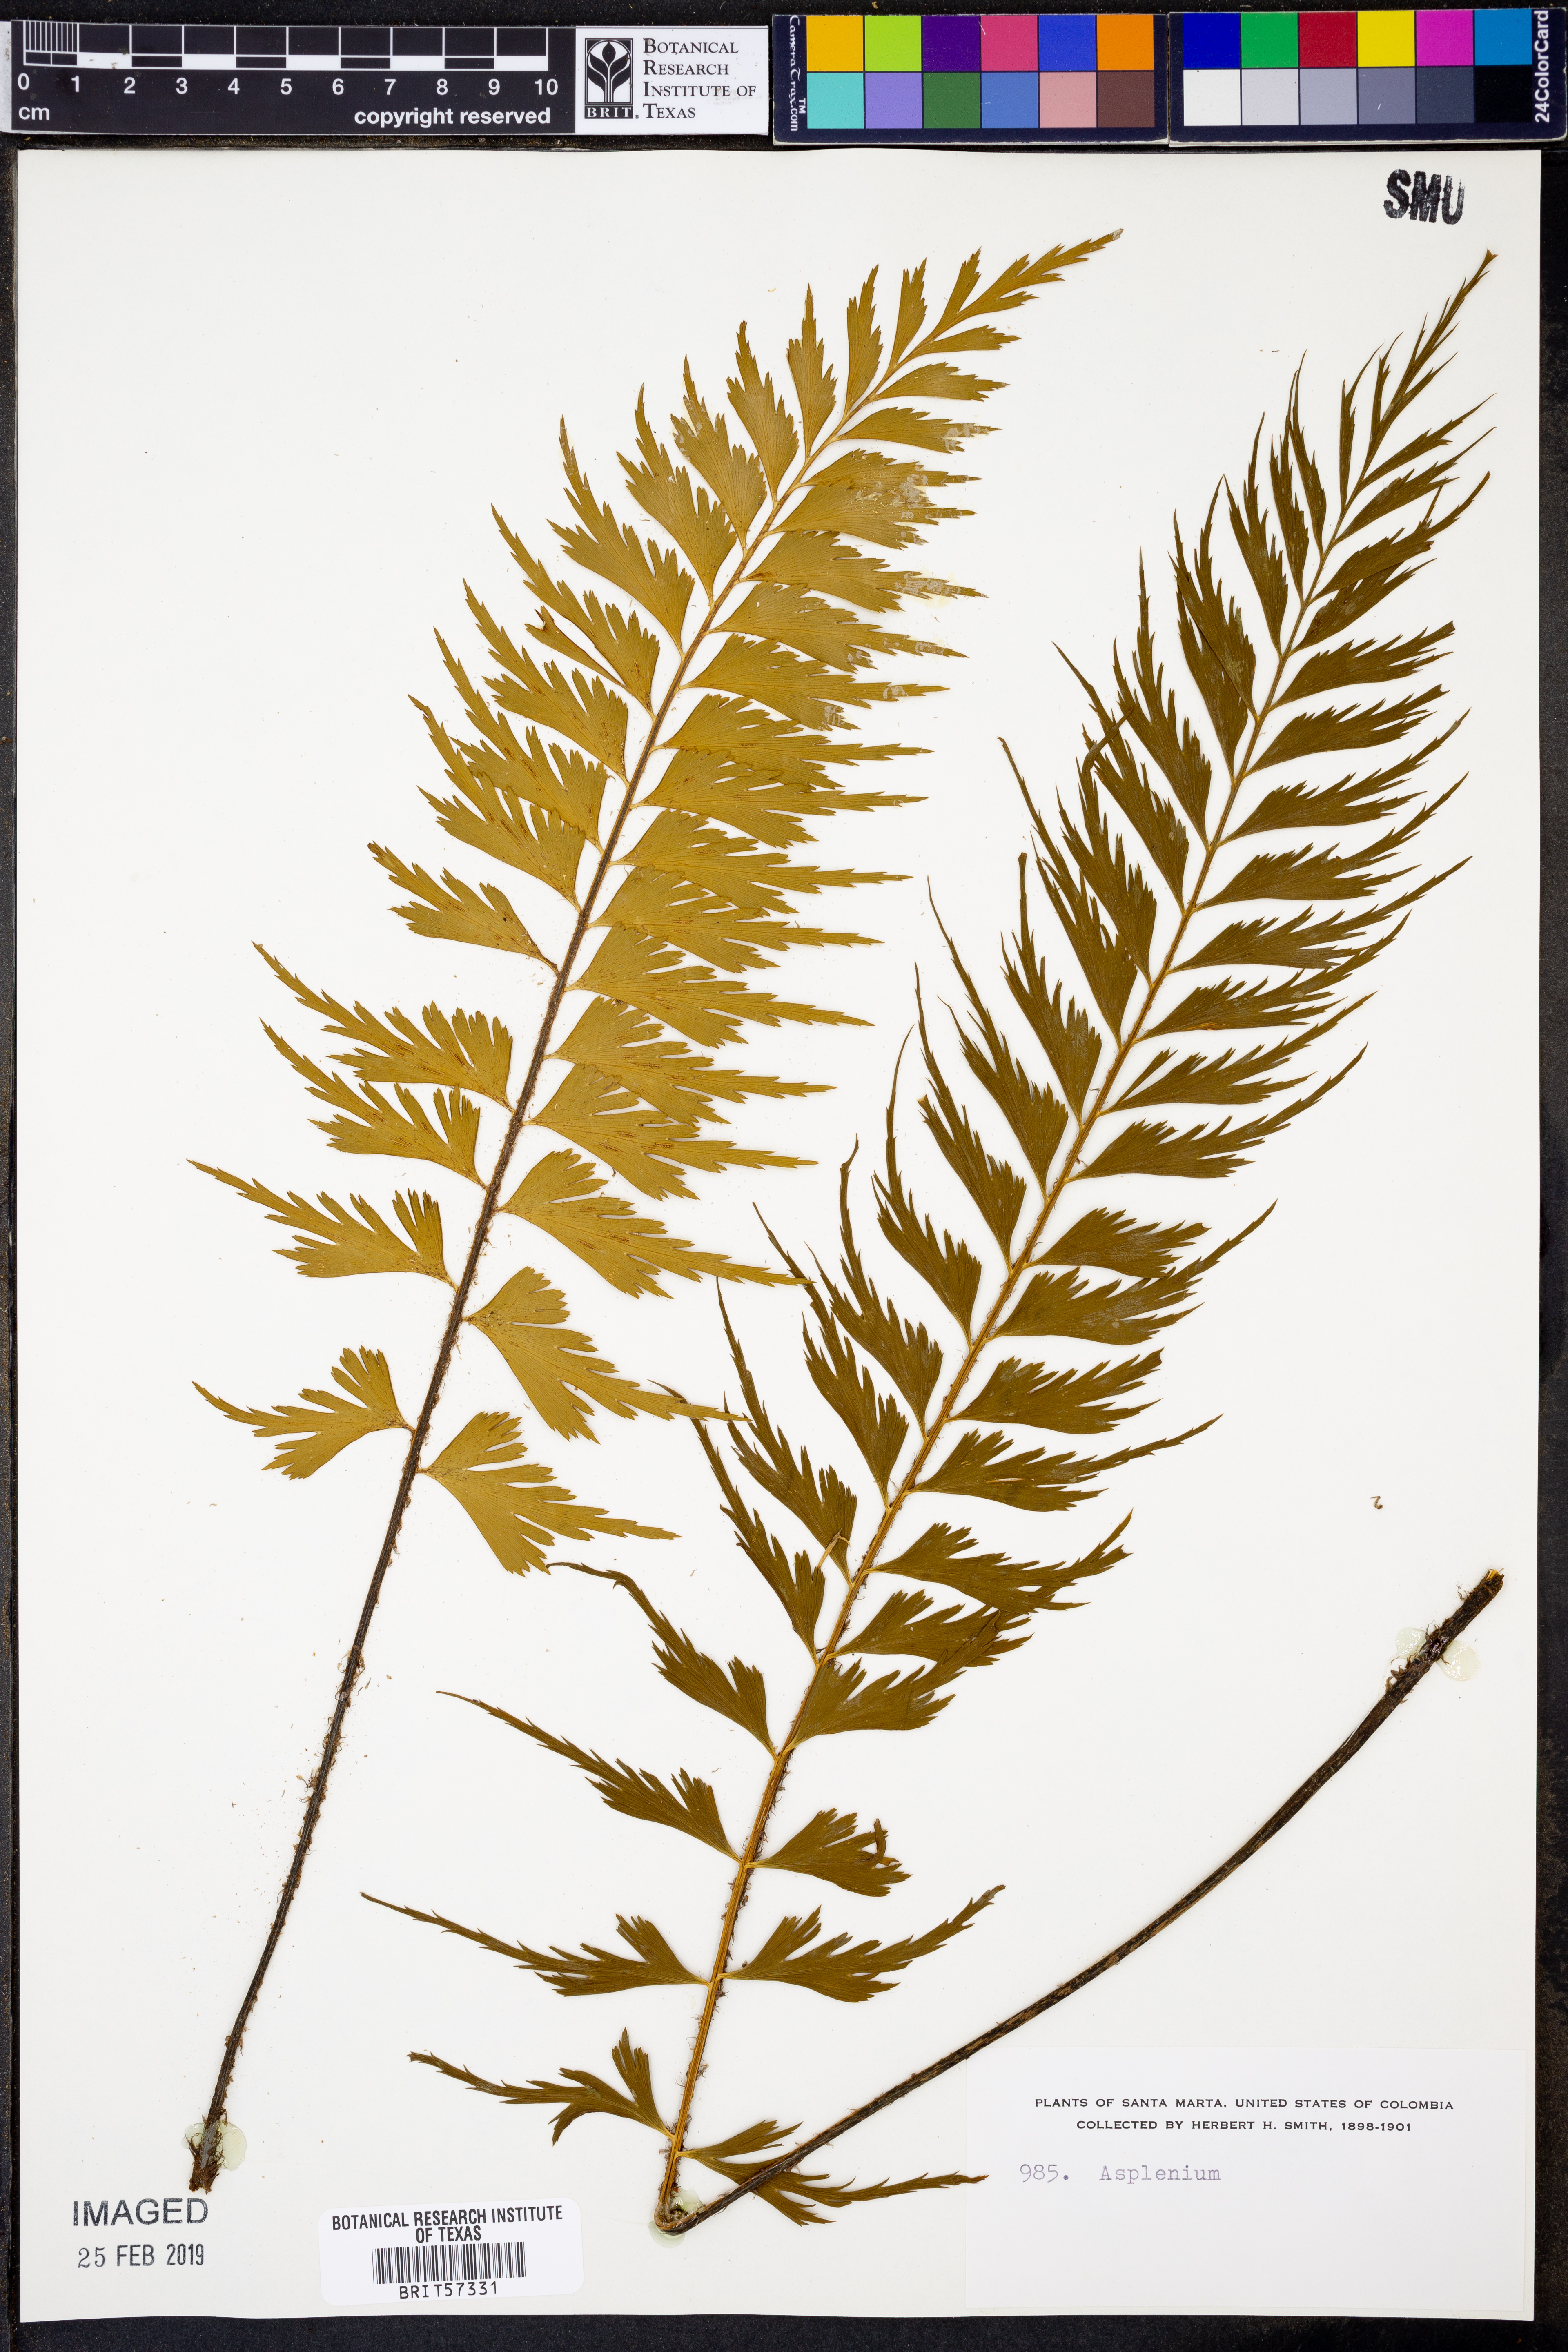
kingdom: Plantae
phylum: Tracheophyta
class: Polypodiopsida
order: Polypodiales
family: Aspleniaceae
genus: Asplenium
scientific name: Asplenium
